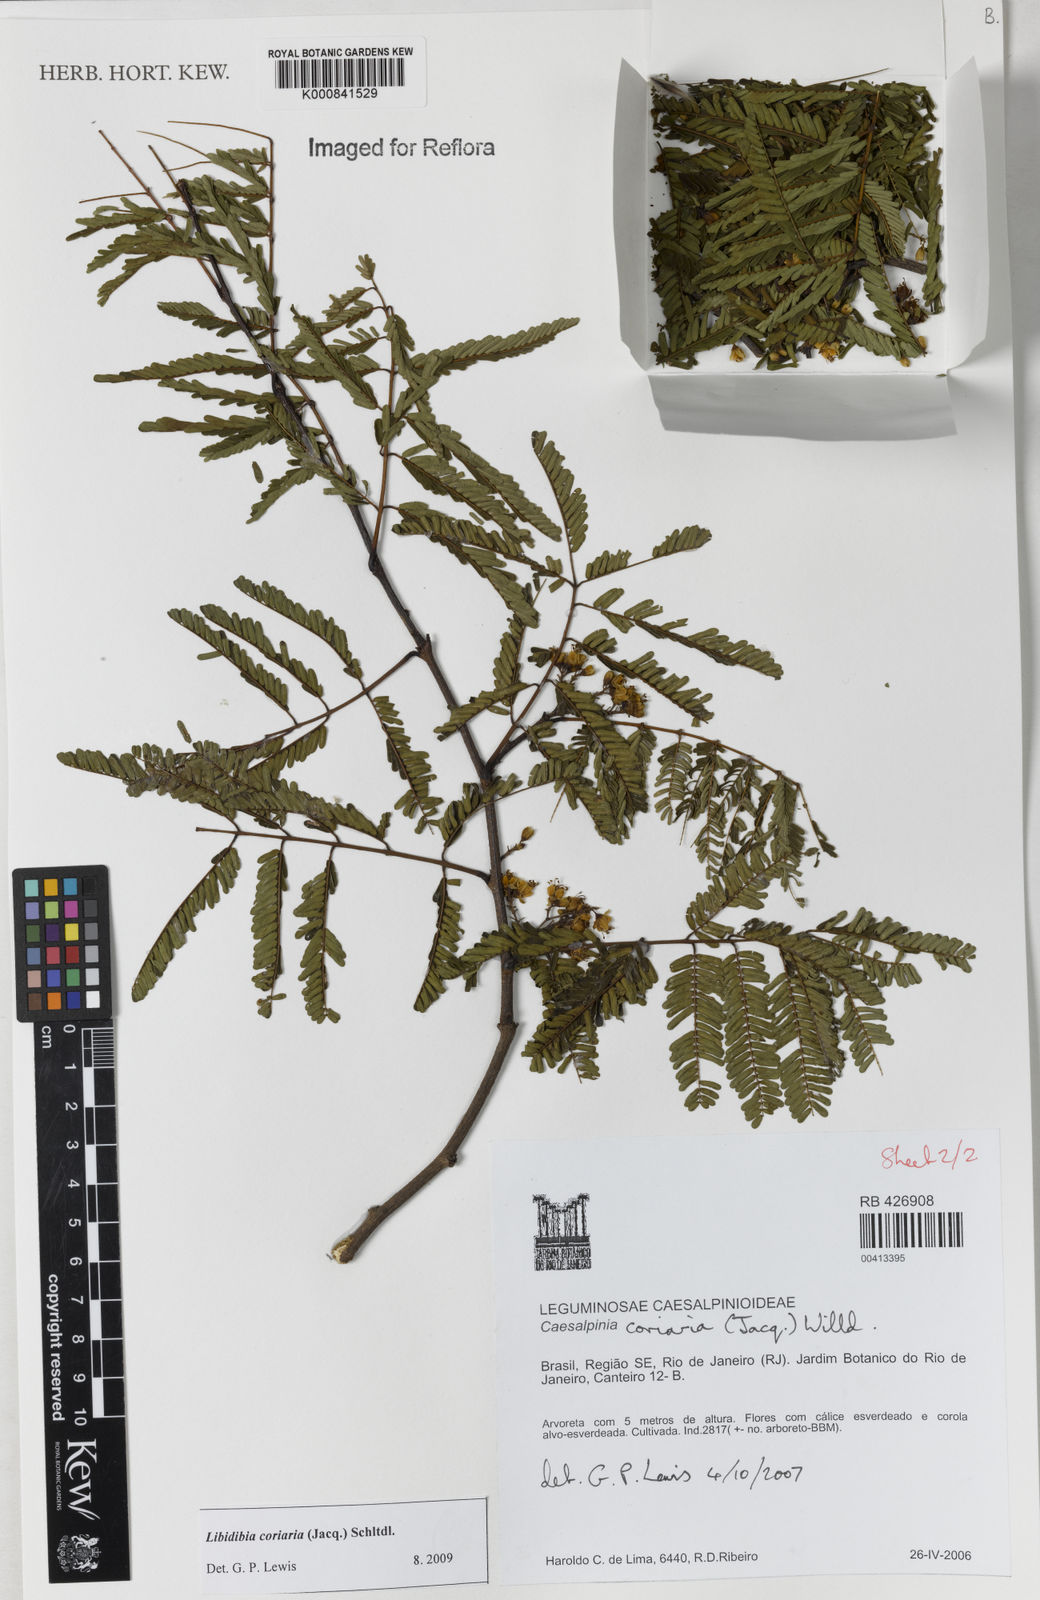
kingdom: Plantae
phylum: Tracheophyta
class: Magnoliopsida
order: Fabales
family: Fabaceae
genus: Libidibia
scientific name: Libidibia coriaria
